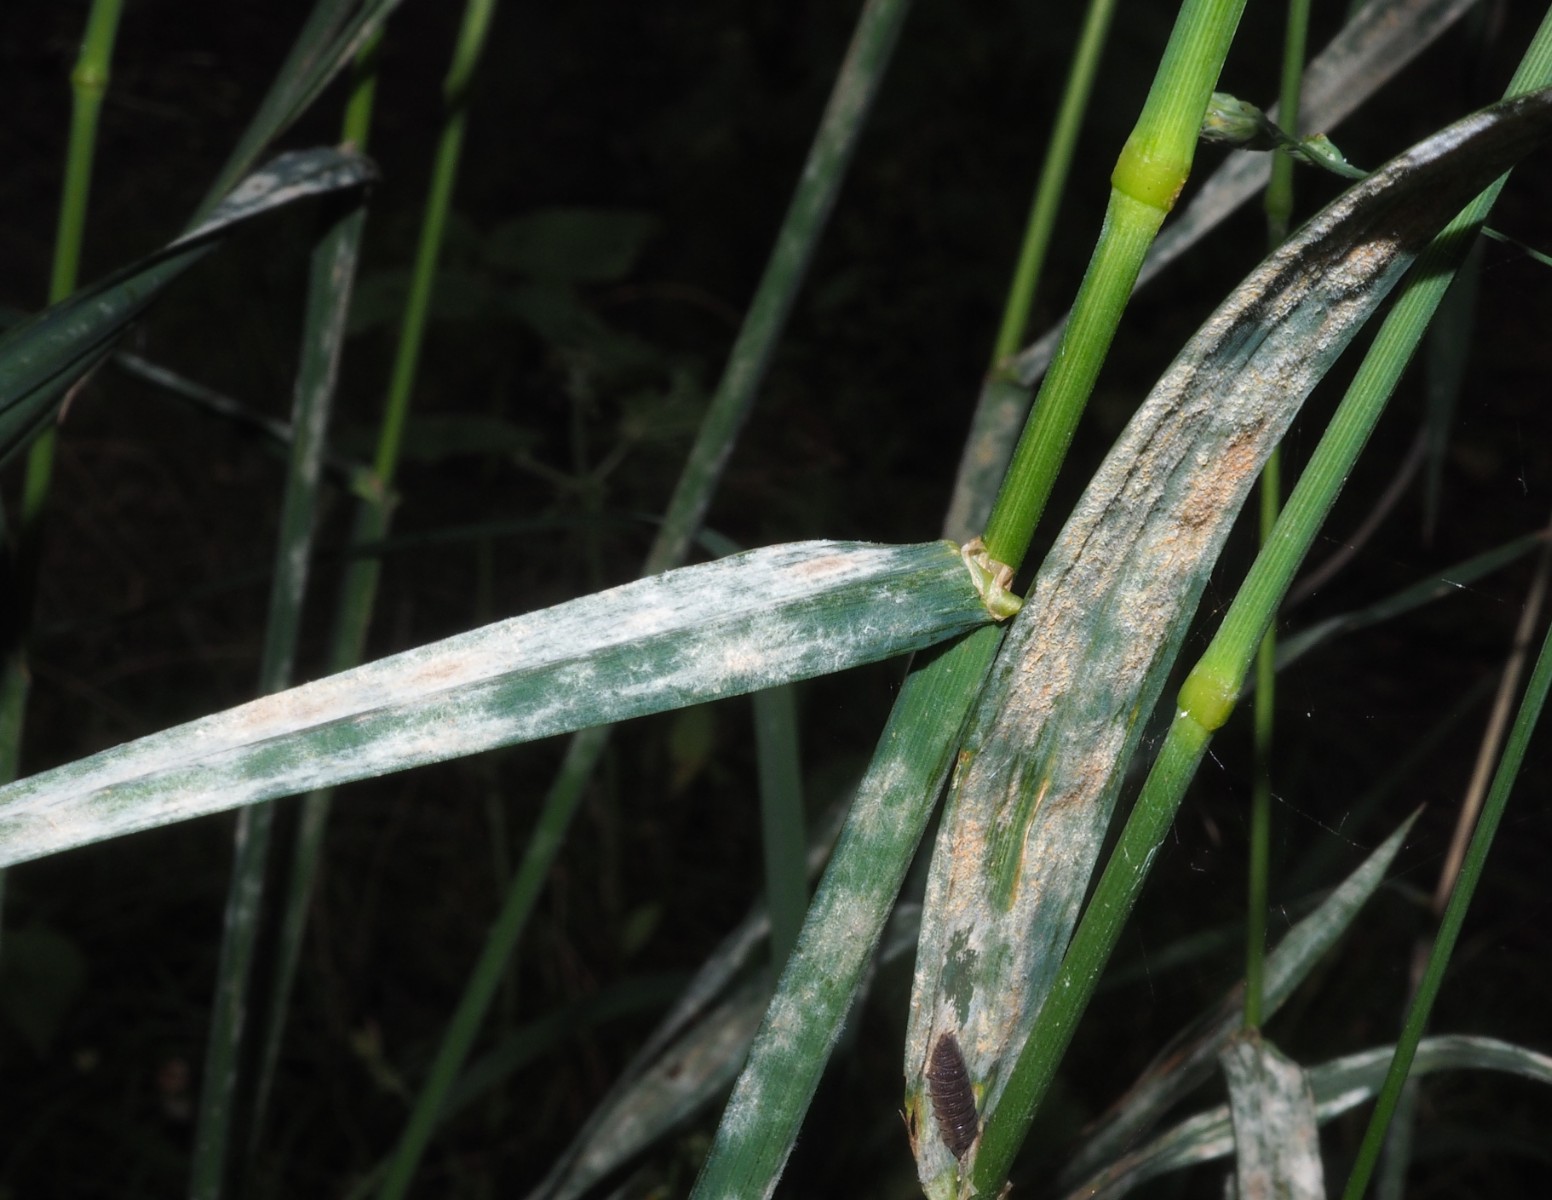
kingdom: Fungi
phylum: Ascomycota
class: Leotiomycetes
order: Helotiales
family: Erysiphaceae
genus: Blumeria
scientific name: Blumeria graminis
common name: græs-meldug
